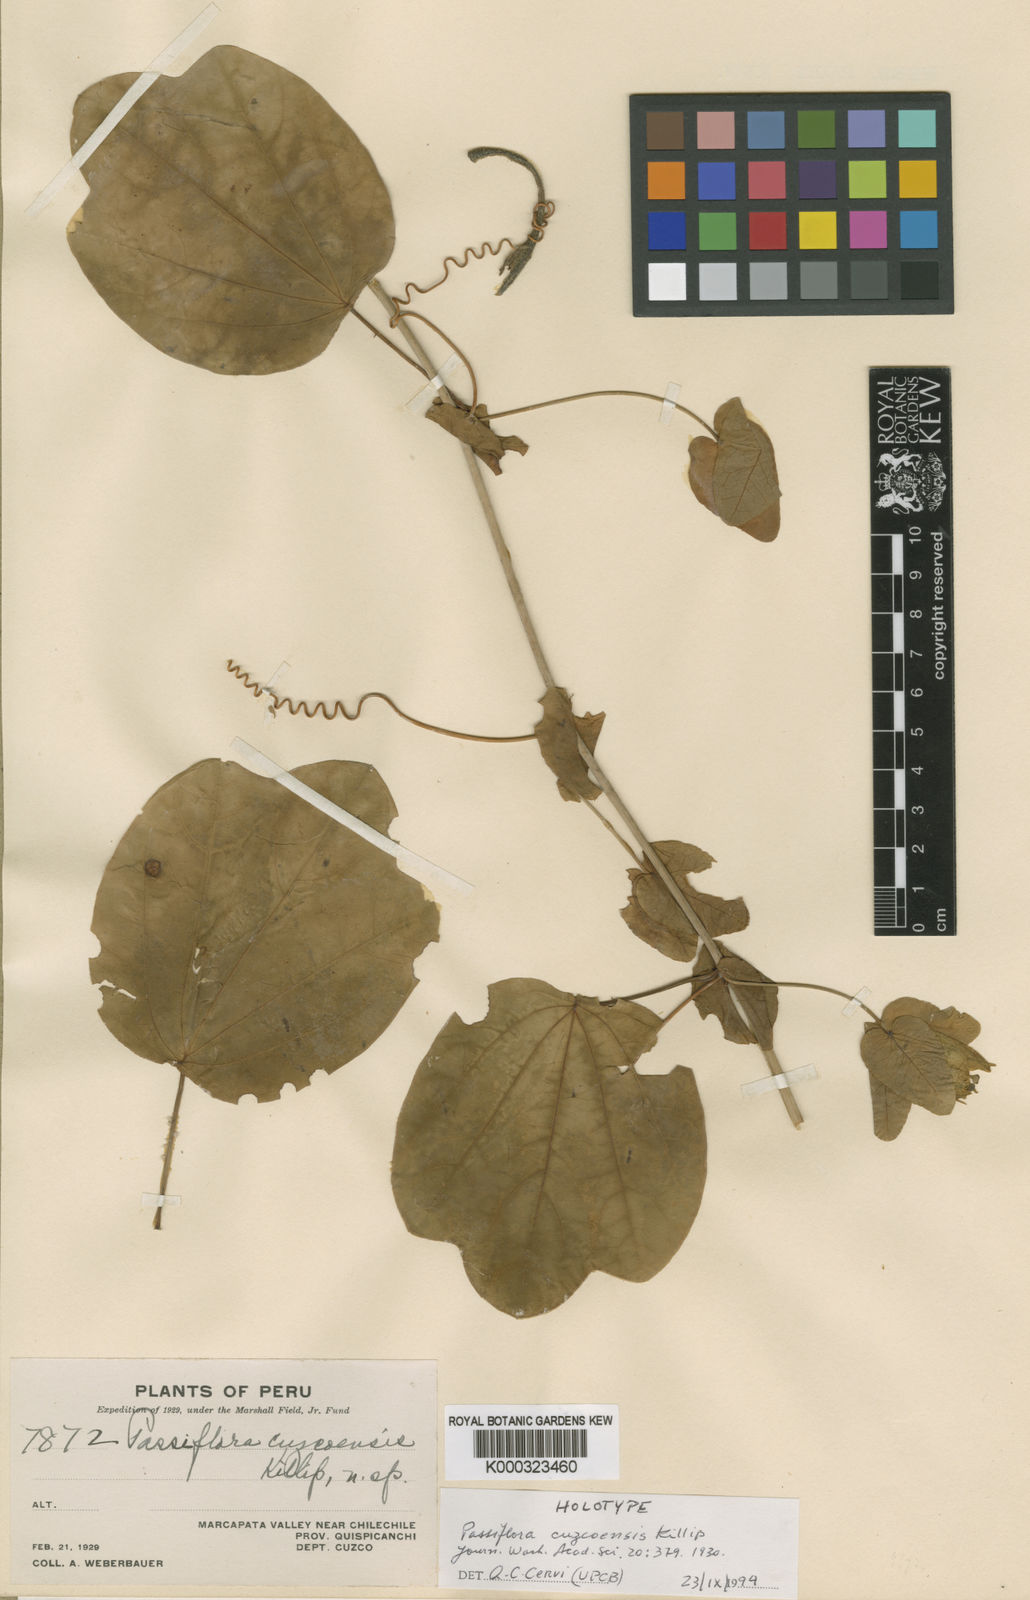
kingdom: Plantae
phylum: Tracheophyta
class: Magnoliopsida
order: Malpighiales
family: Passifloraceae
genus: Passiflora
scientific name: Passiflora cuzcoensis
